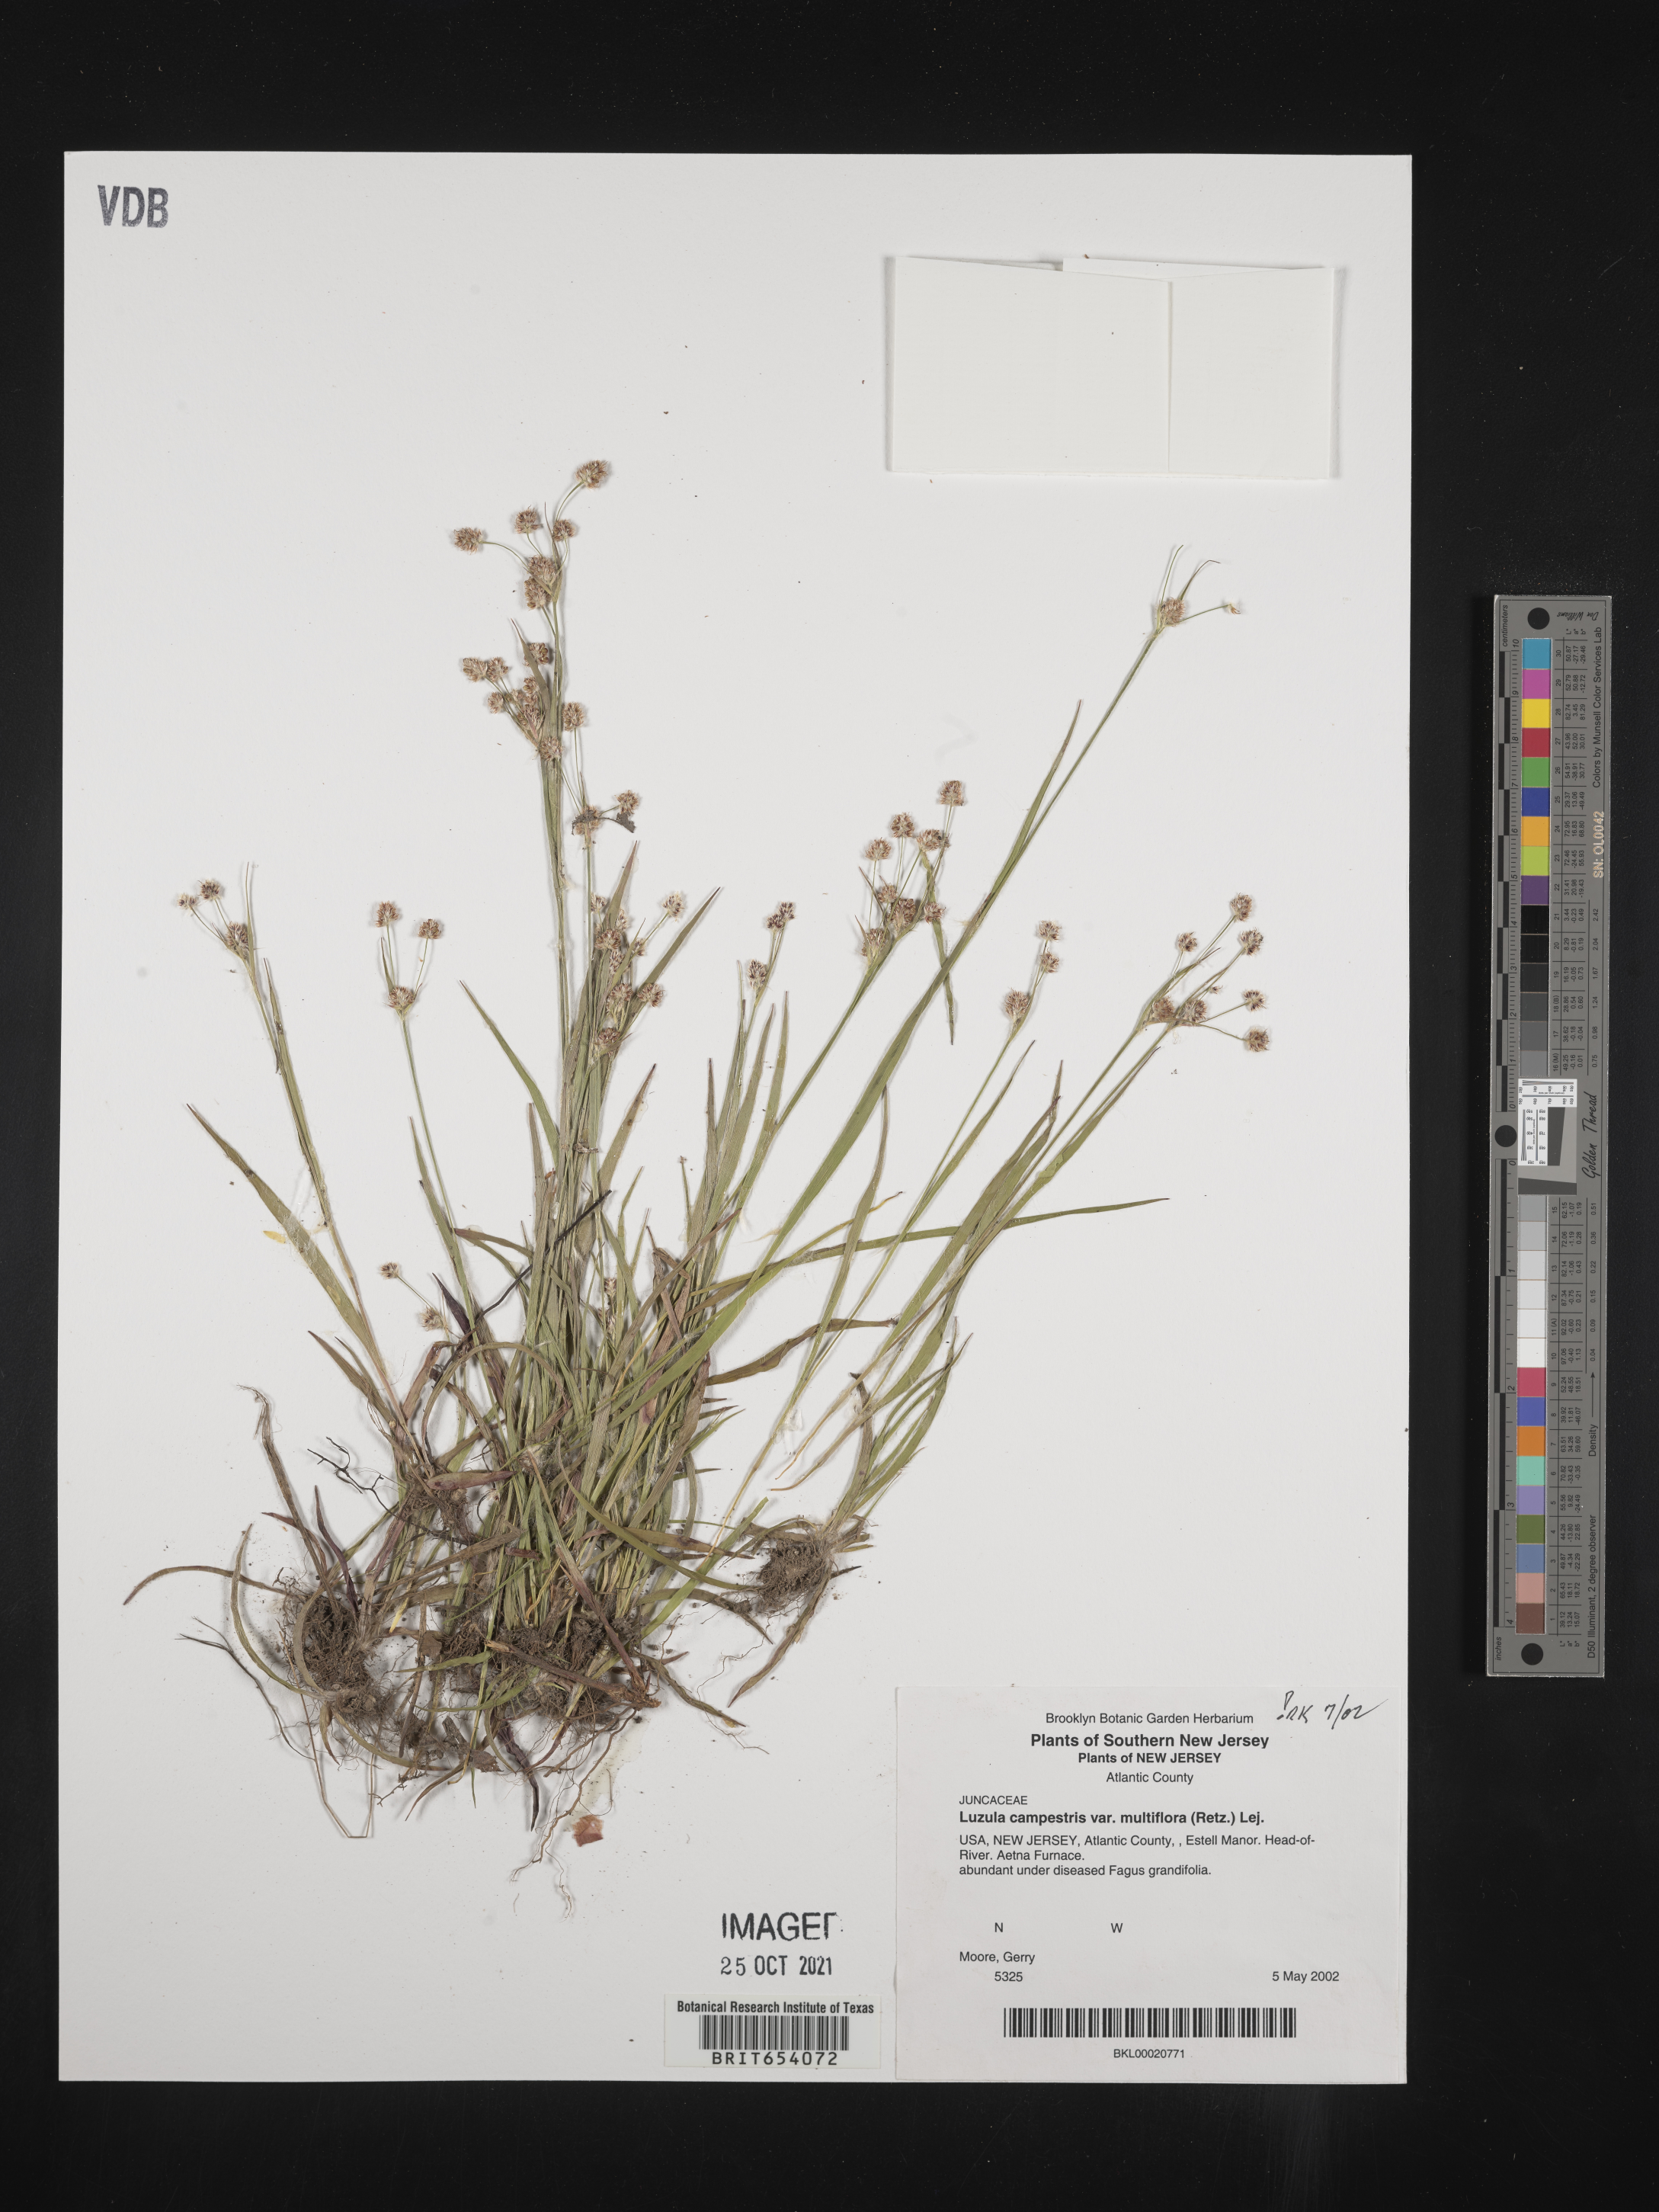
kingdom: Plantae
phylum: Tracheophyta
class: Liliopsida
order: Poales
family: Juncaceae
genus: Luzula
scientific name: Luzula campestris
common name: Field wood-rush
